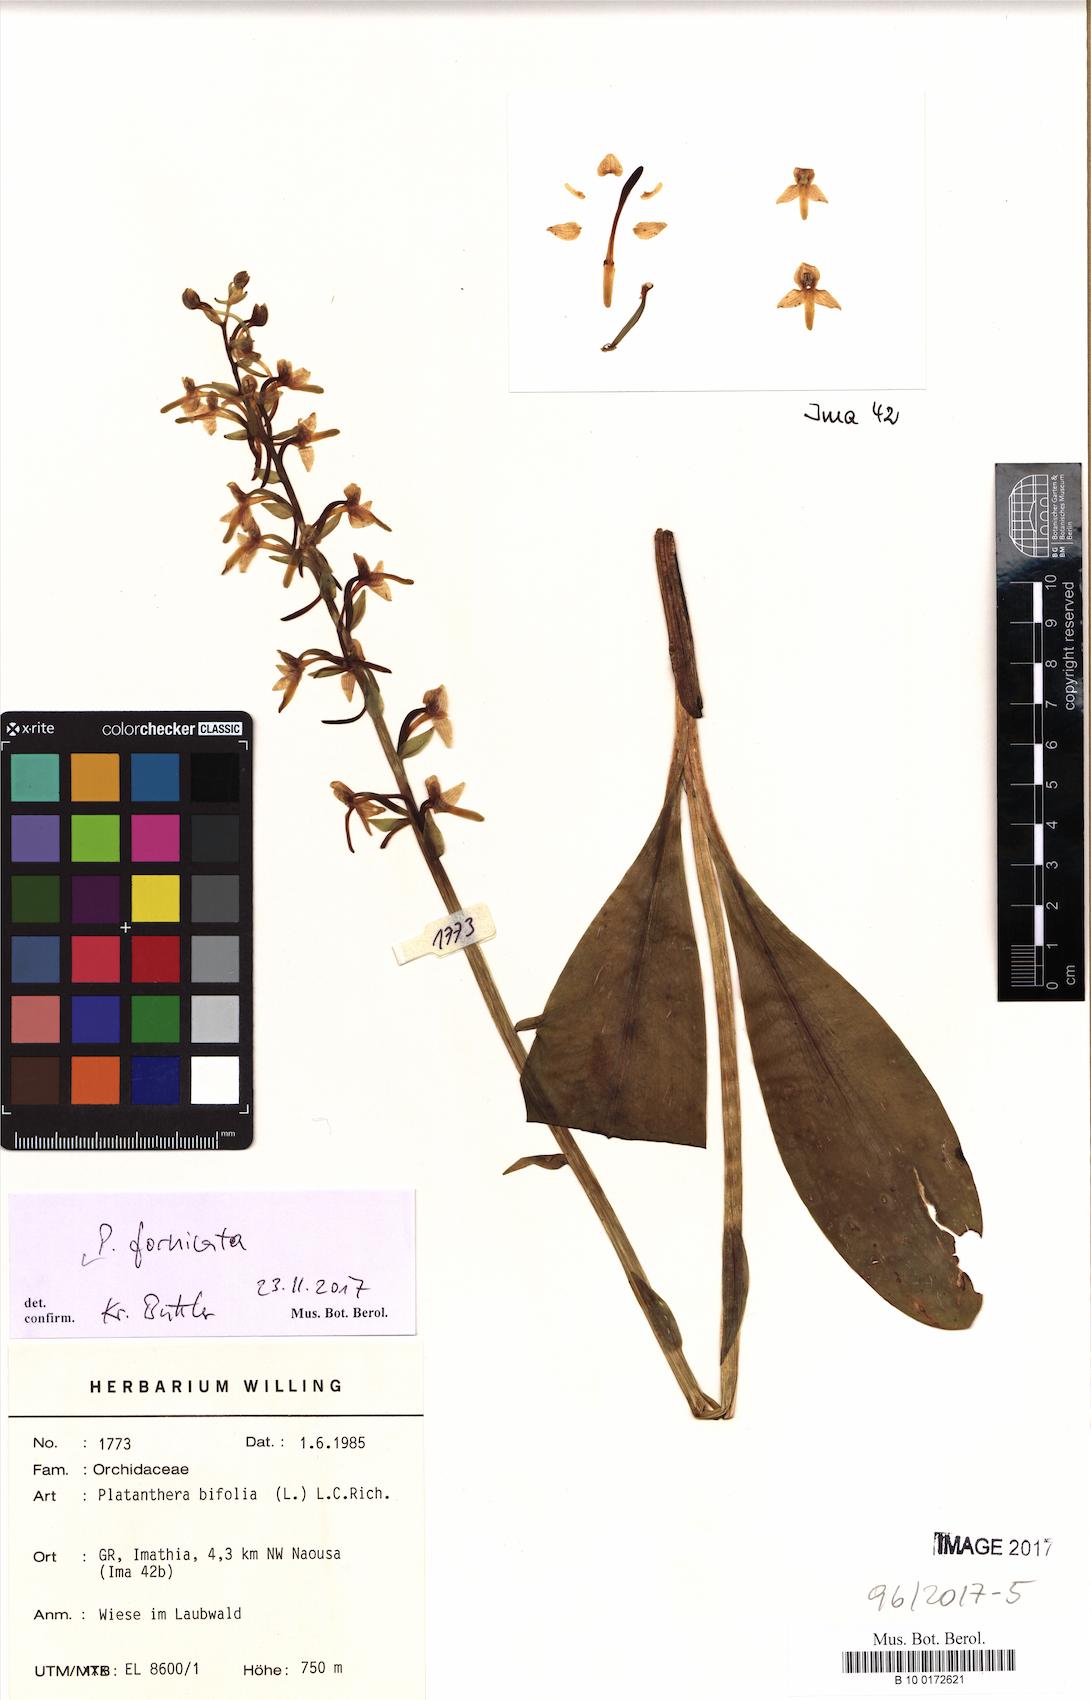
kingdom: Plantae
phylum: Tracheophyta
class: Liliopsida
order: Asparagales
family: Orchidaceae
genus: Platanthera
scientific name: Platanthera bifolia
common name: Lesser butterfly-orchid
